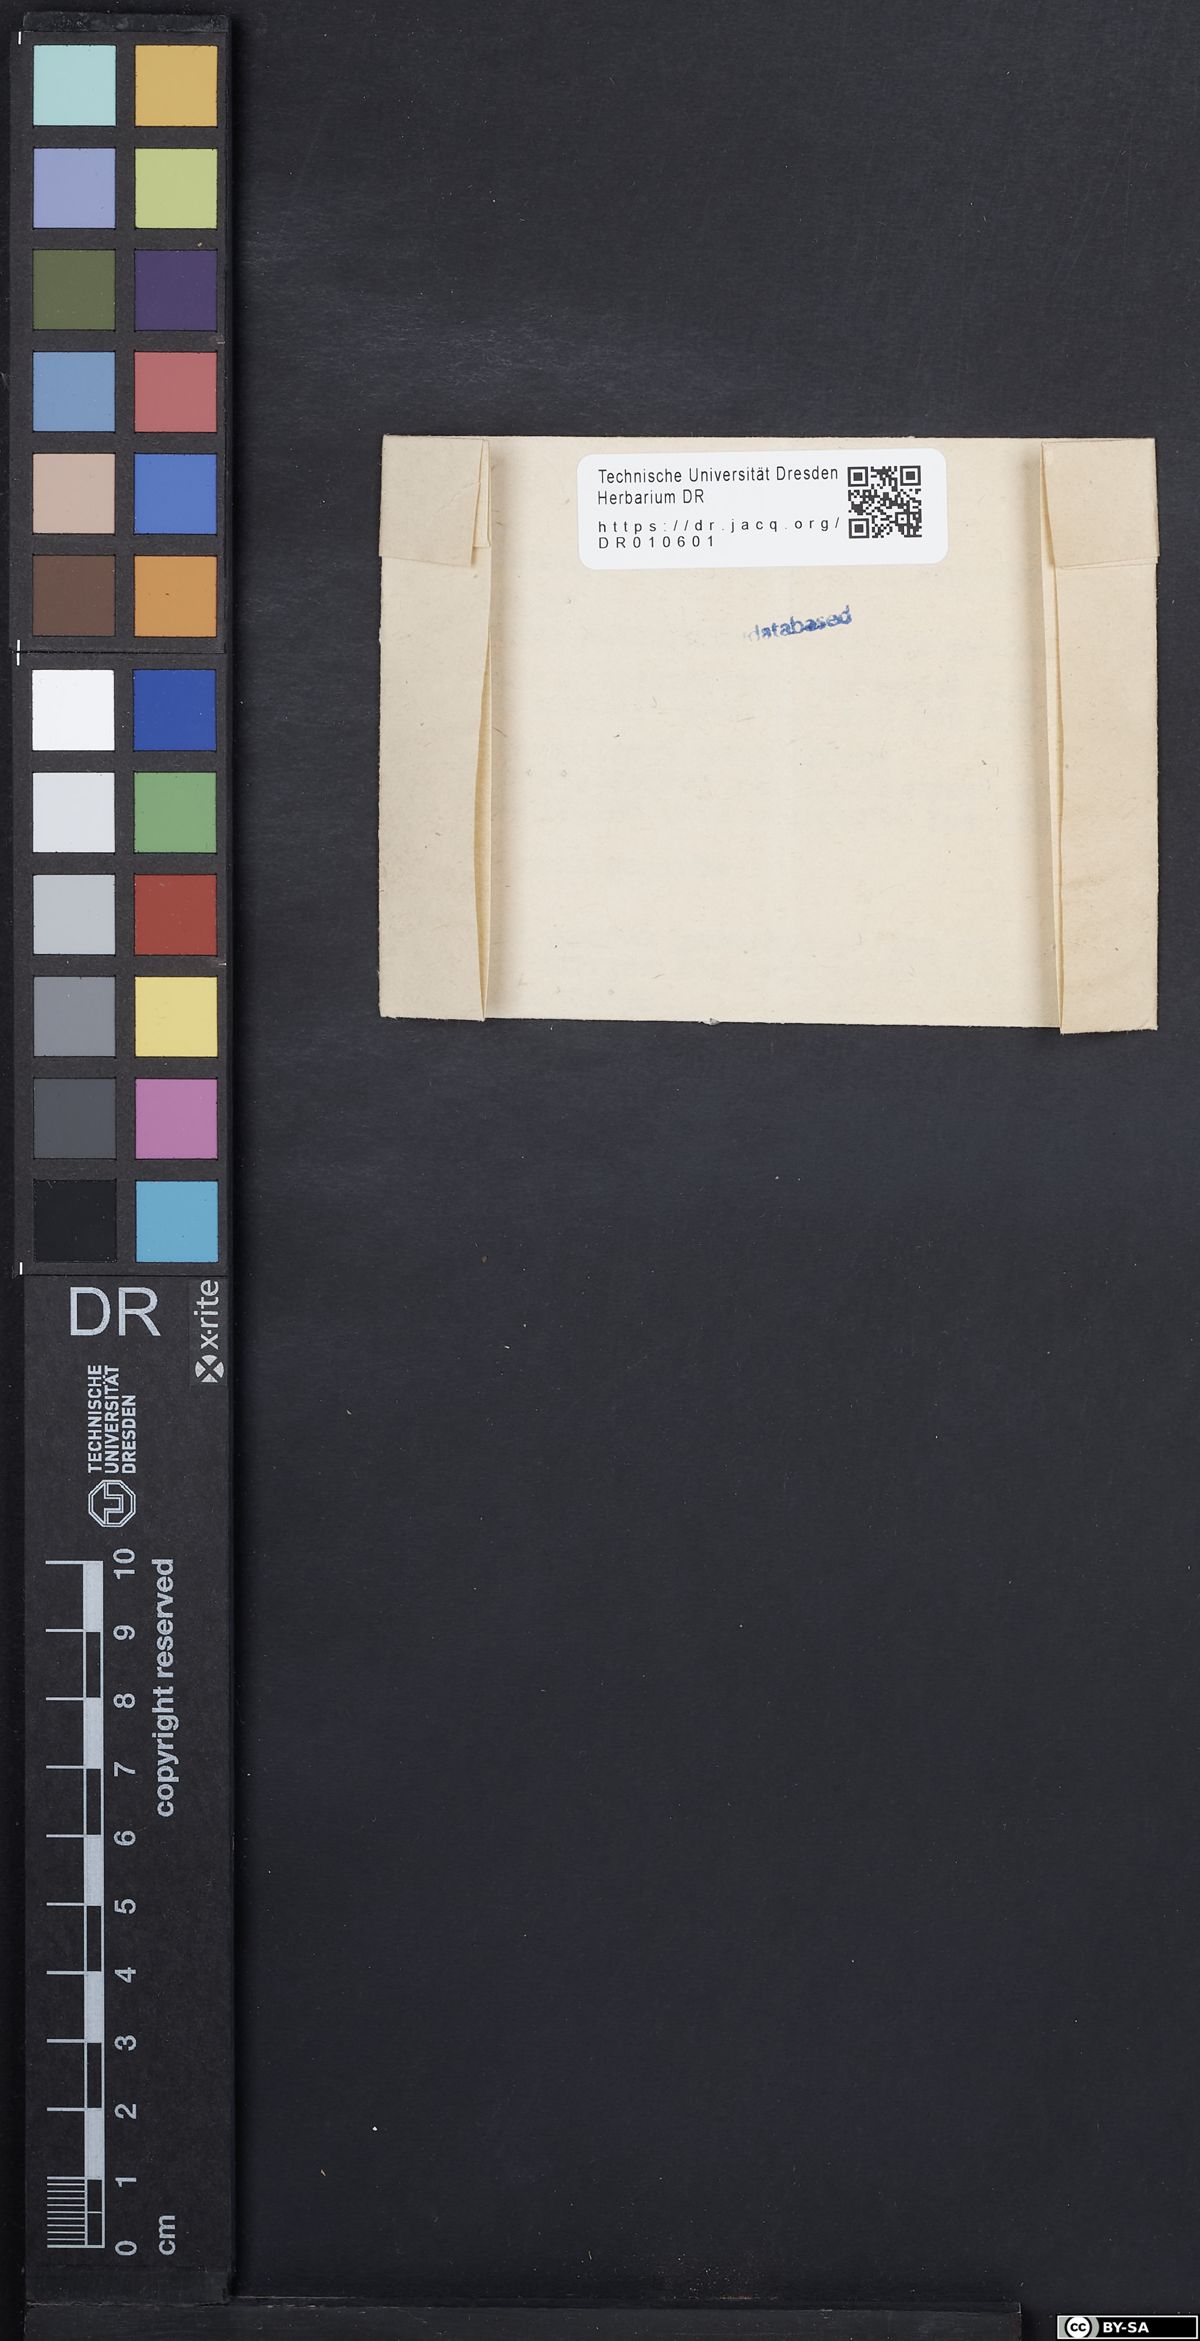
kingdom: Plantae
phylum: Tracheophyta
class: Magnoliopsida
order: Caryophyllales
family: Droseraceae
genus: Drosera
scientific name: Drosera anglica
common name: Great sundew
